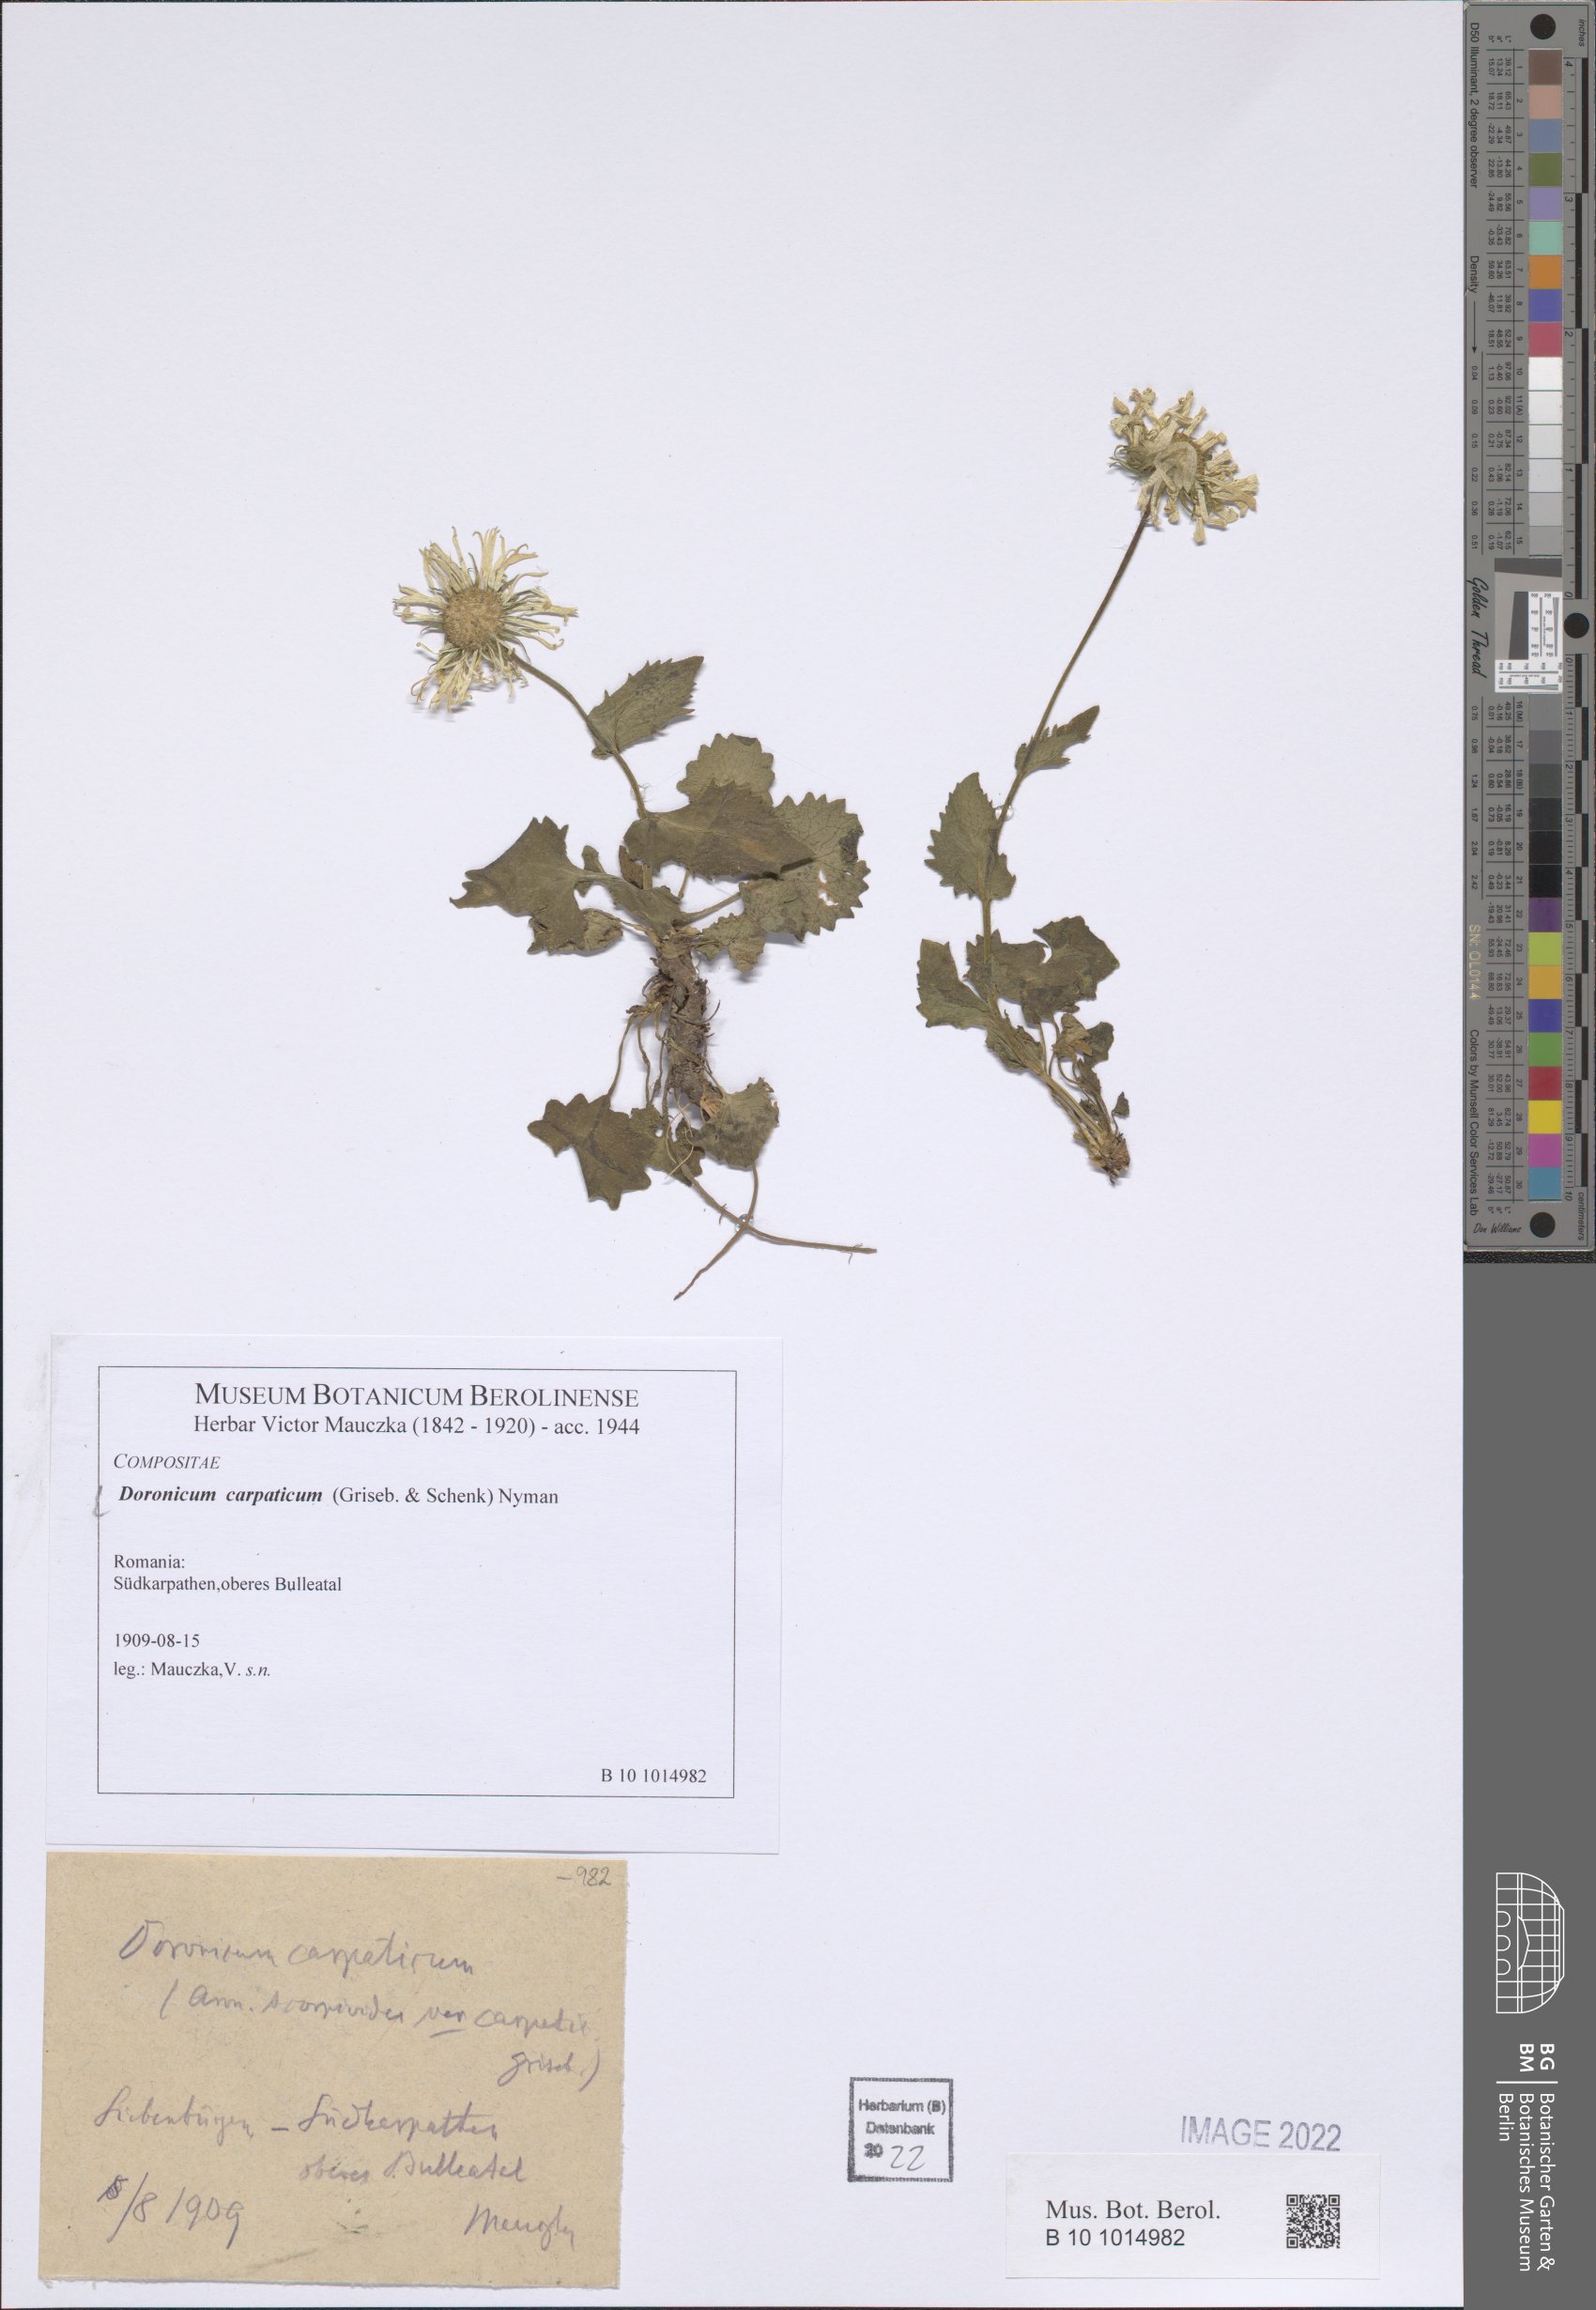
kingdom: Plantae
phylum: Tracheophyta
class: Magnoliopsida
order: Asterales
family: Asteraceae
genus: Doronicum
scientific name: Doronicum carpaticum
